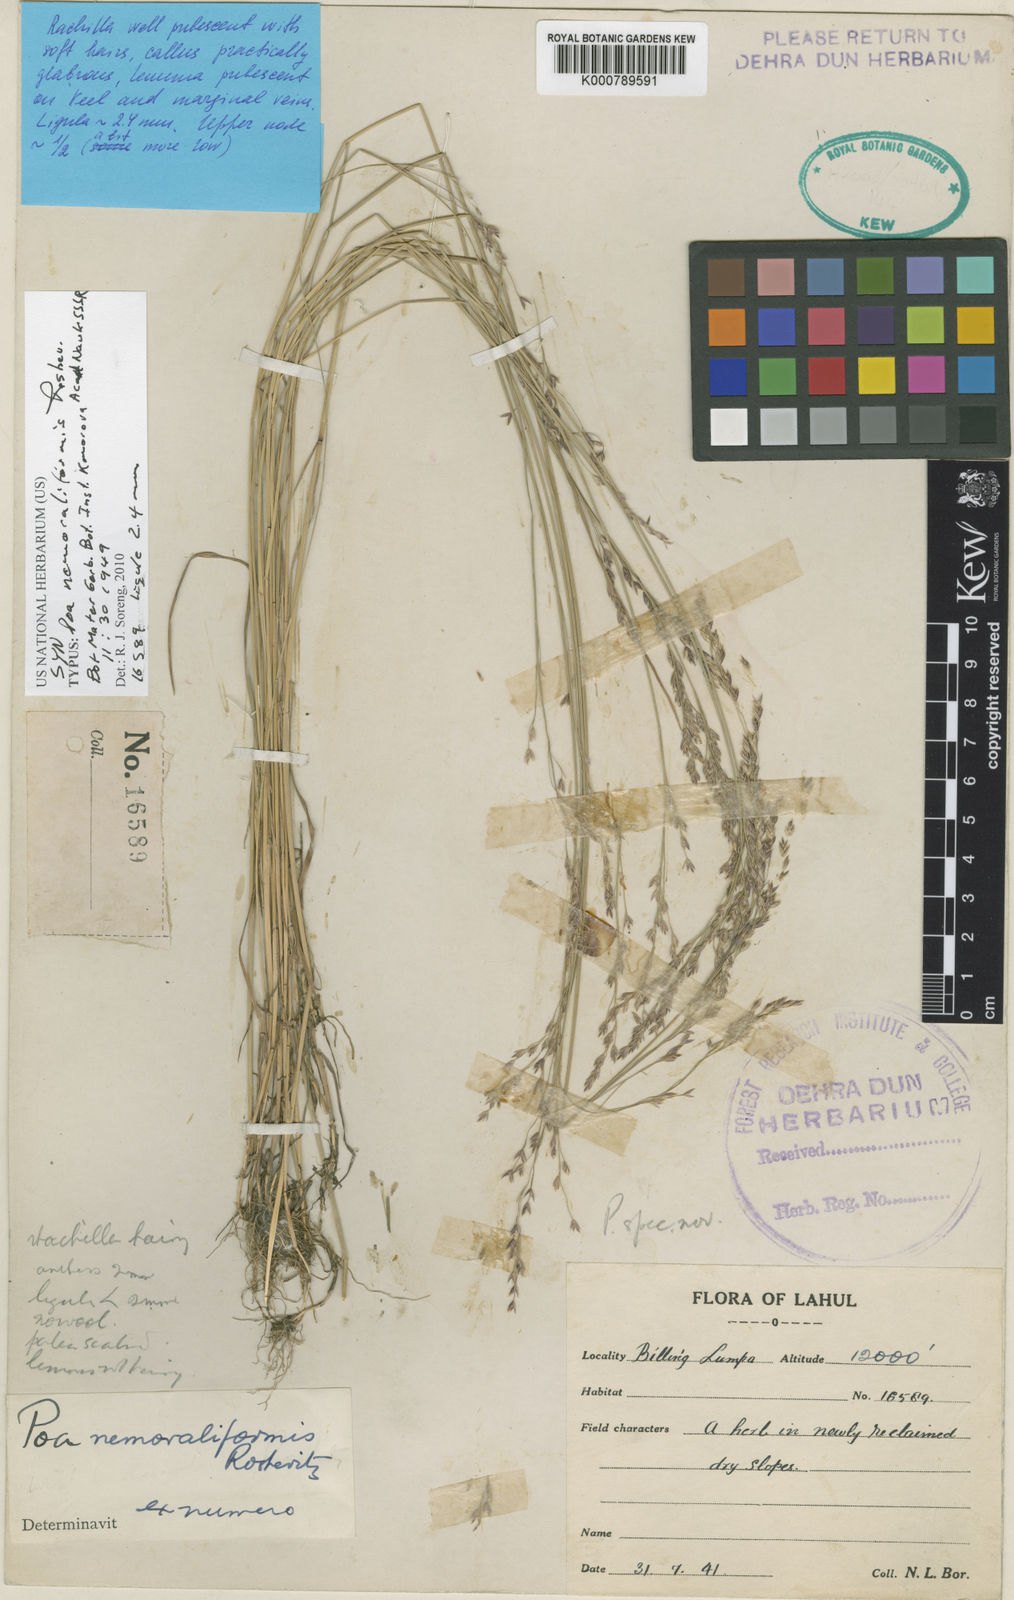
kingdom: Plantae
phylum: Tracheophyta
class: Liliopsida
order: Poales
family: Poaceae
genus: Poa
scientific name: Poa nemoraliformis
